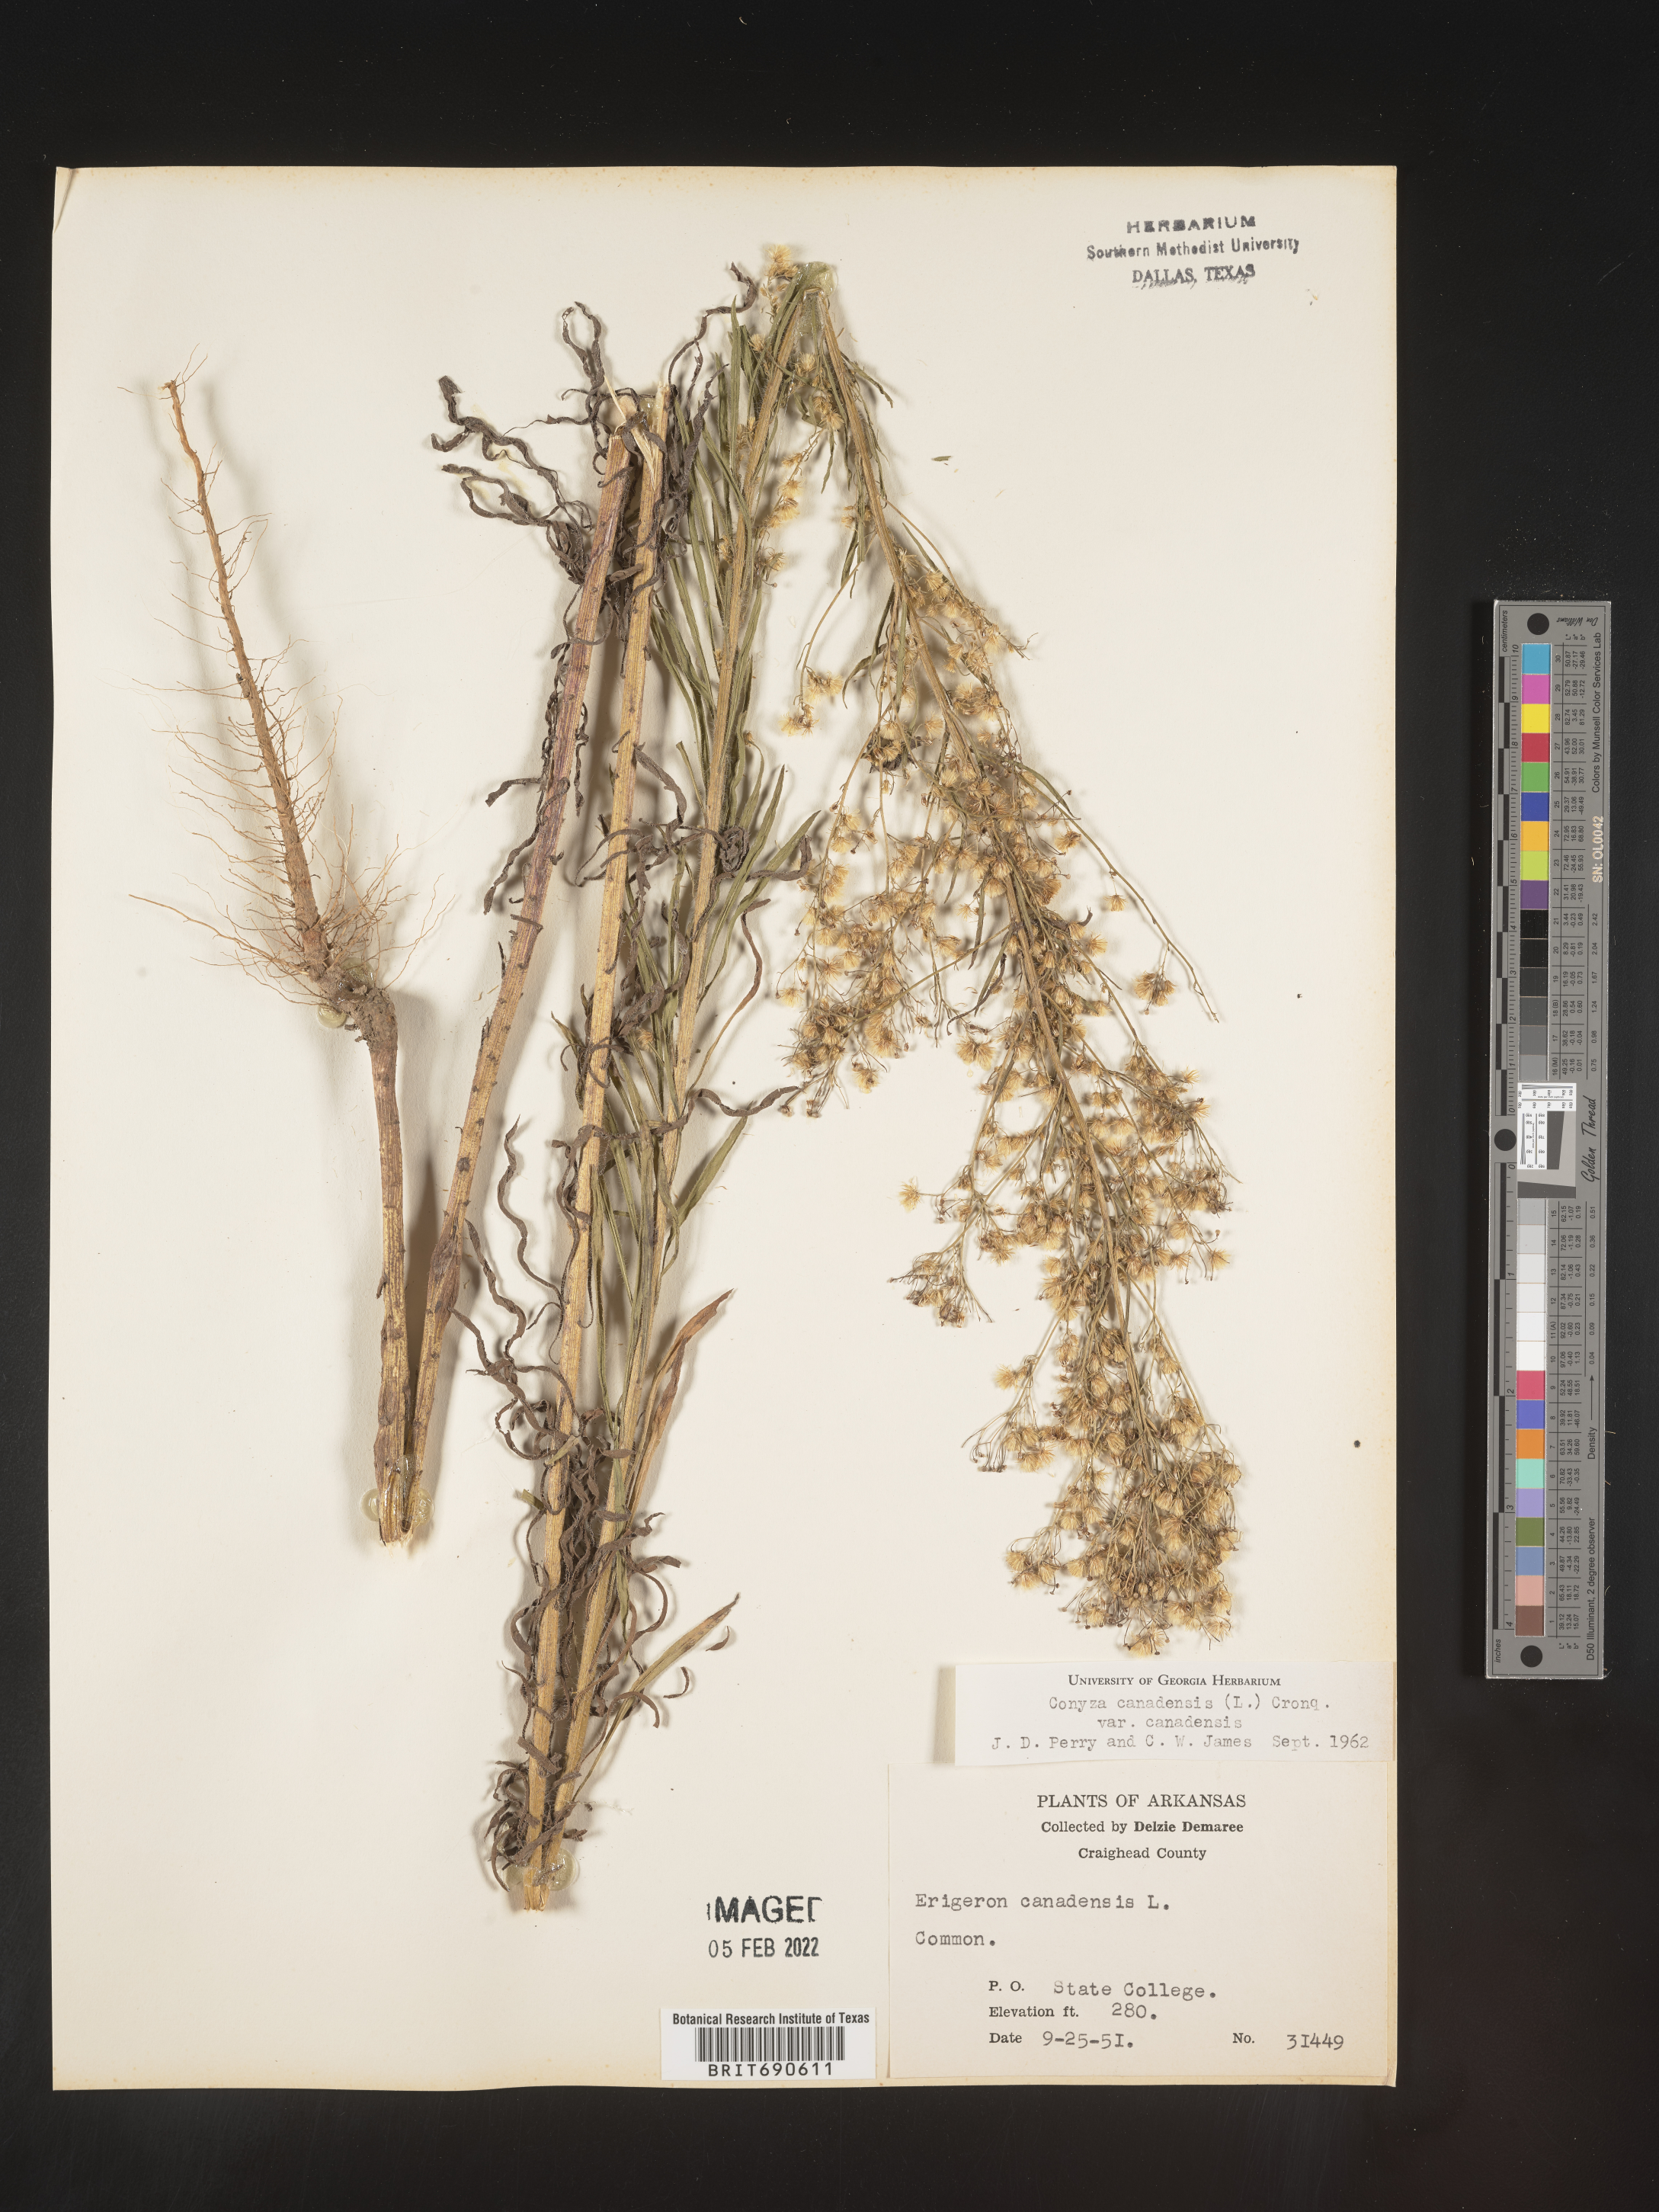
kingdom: Plantae
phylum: Tracheophyta
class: Magnoliopsida
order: Asterales
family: Asteraceae
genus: Erigeron
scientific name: Erigeron canadensis
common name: Canadian fleabane
